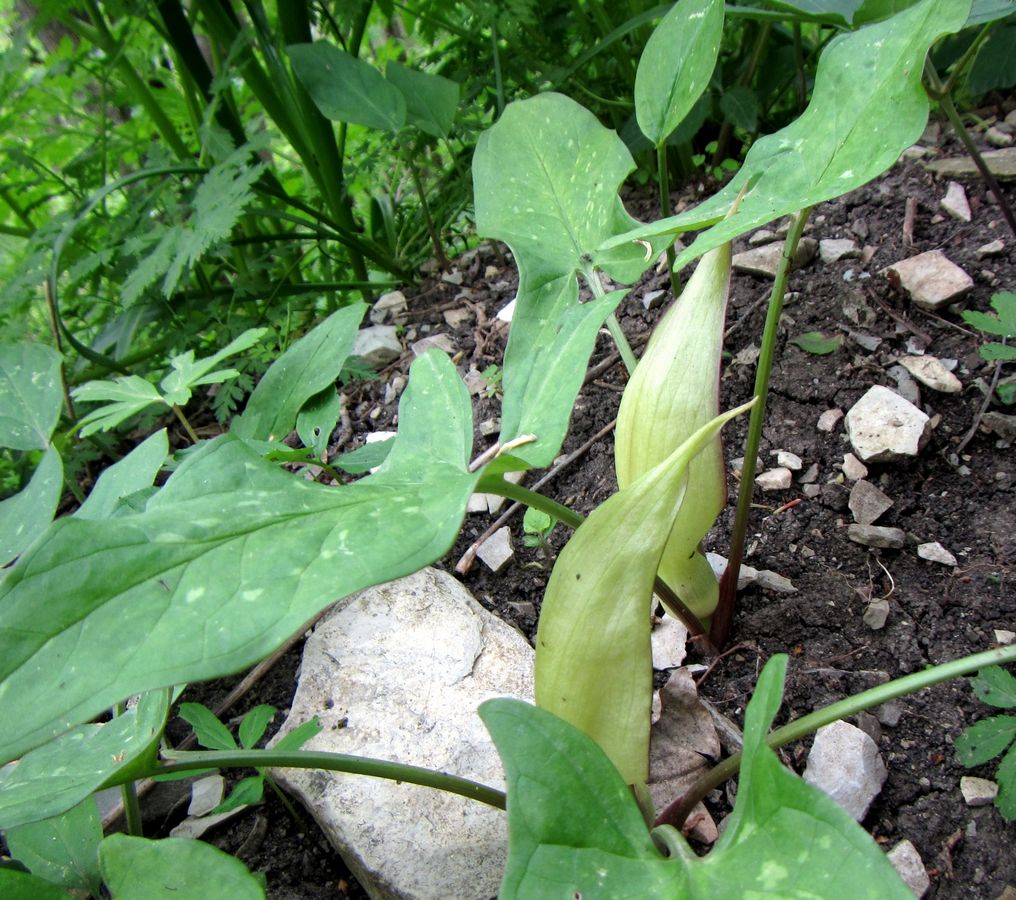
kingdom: Plantae
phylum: Tracheophyta
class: Liliopsida
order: Alismatales
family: Araceae
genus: Arum
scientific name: Arum maculatum
